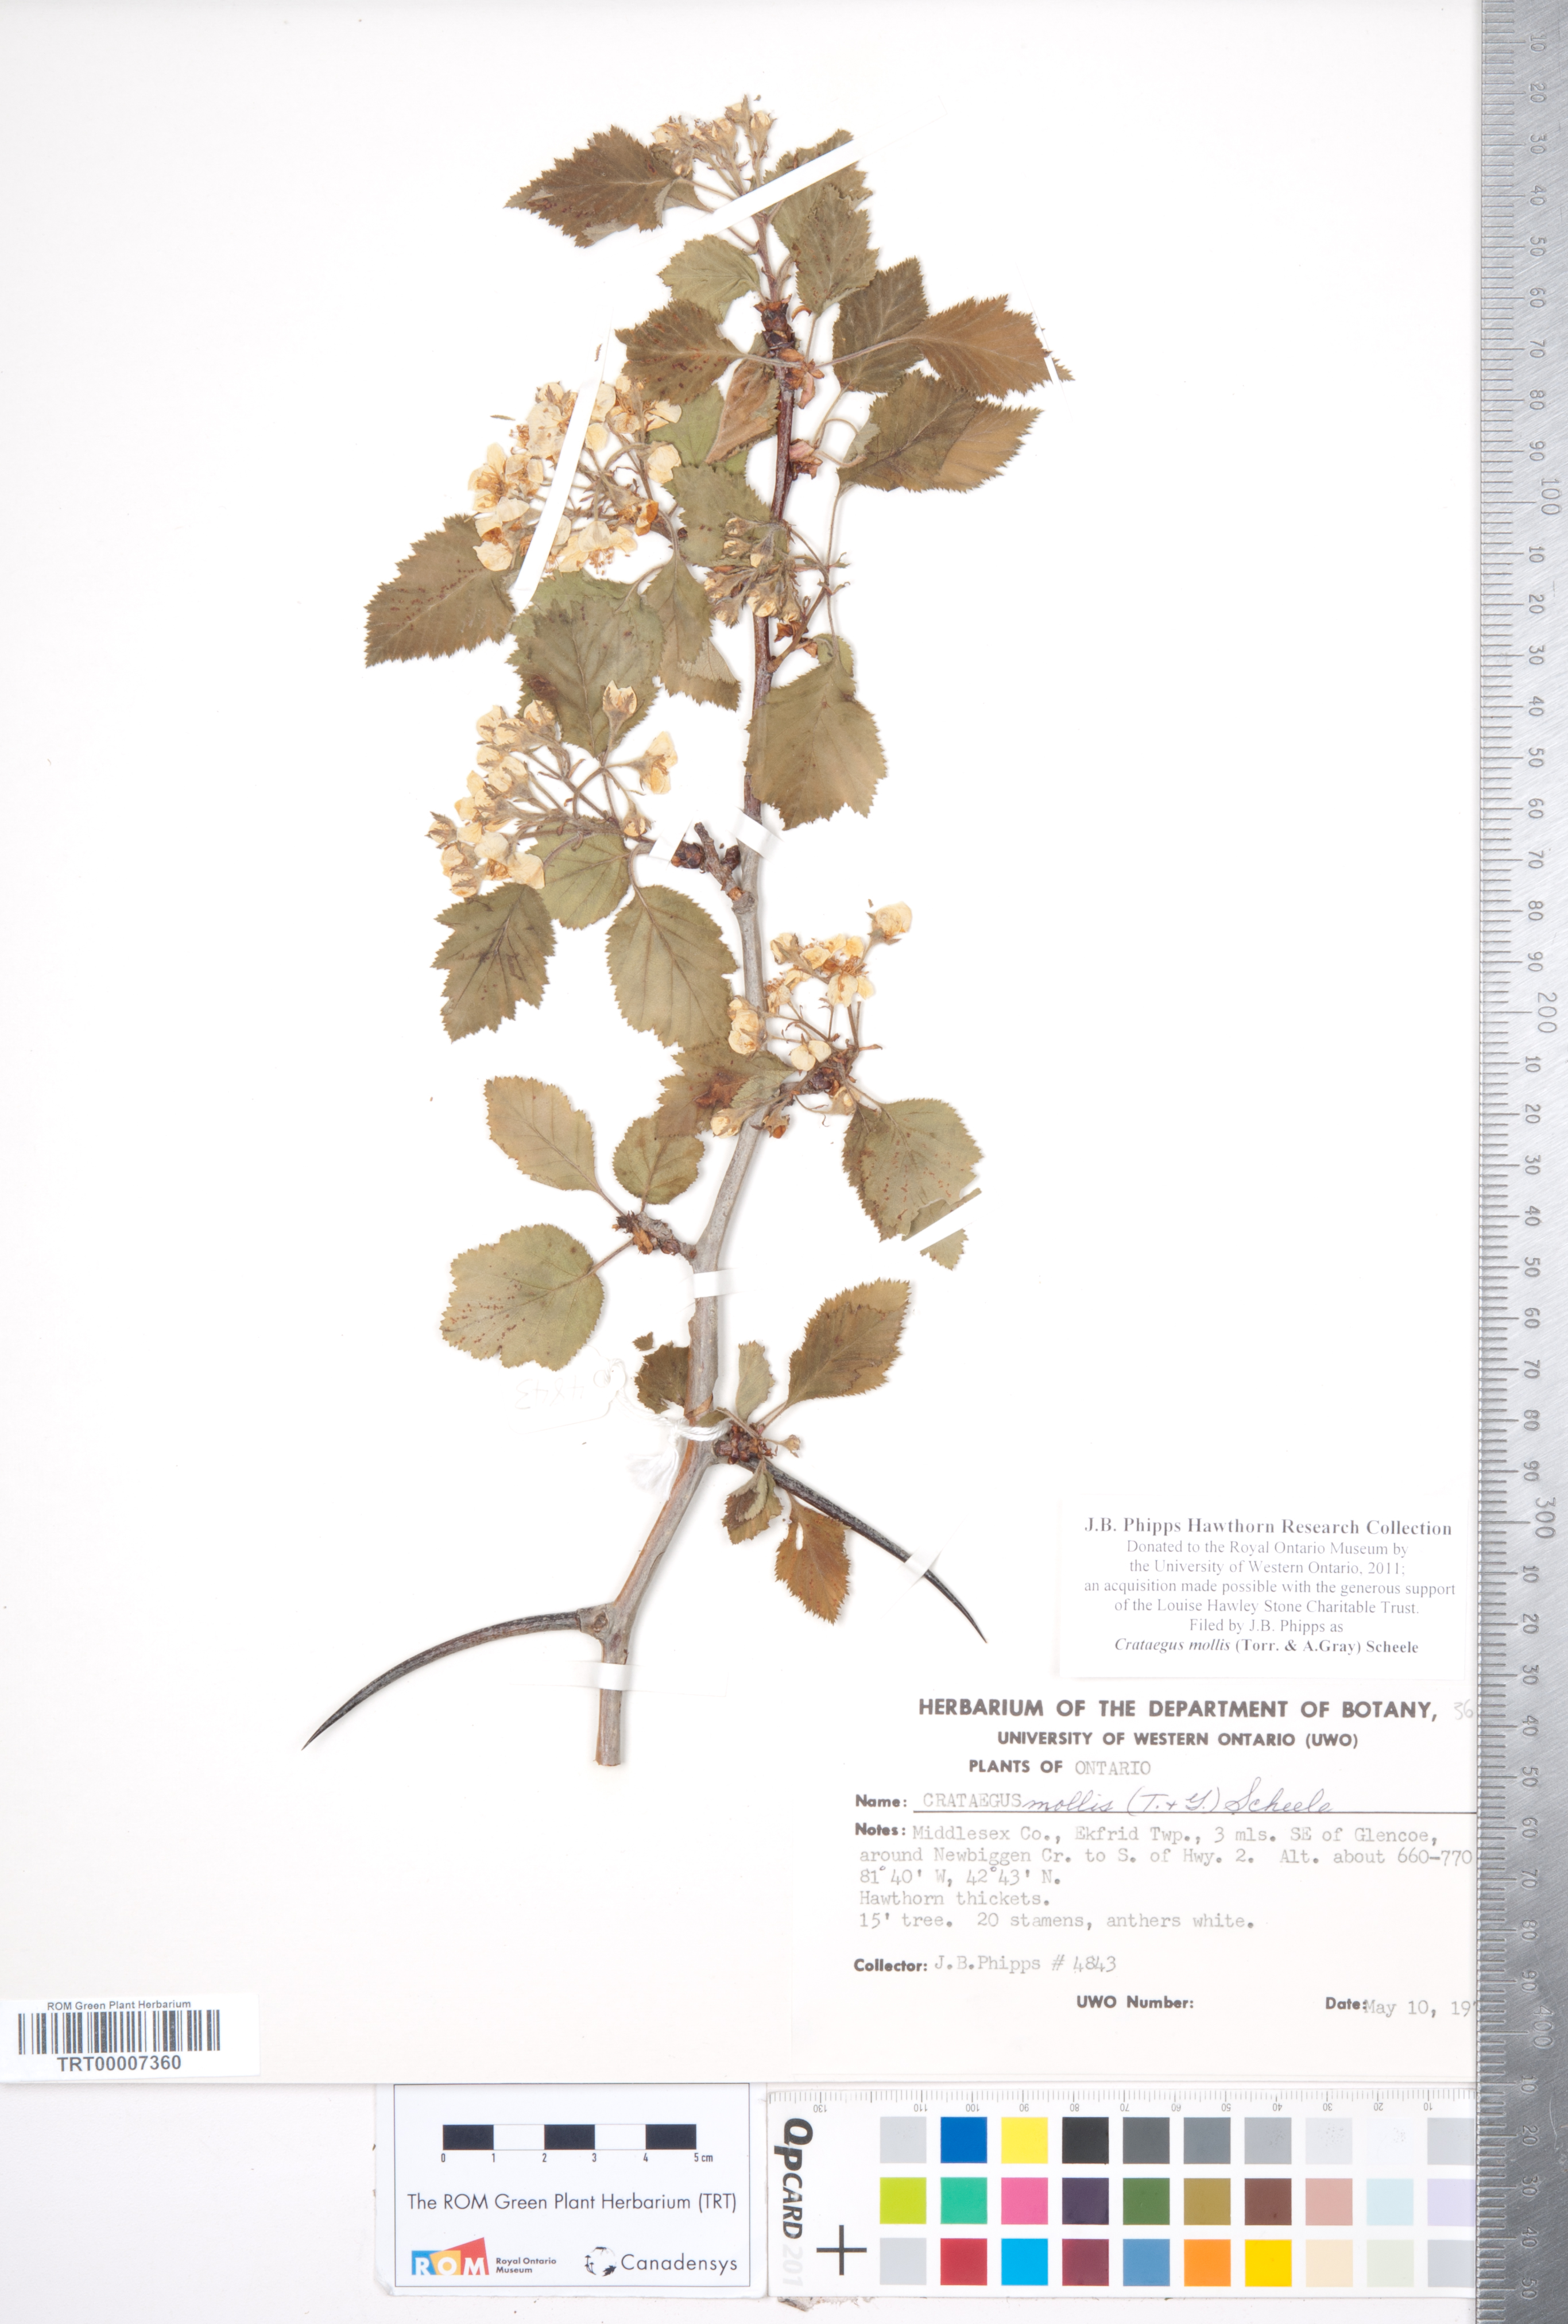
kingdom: Plantae
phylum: Tracheophyta
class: Magnoliopsida
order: Rosales
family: Rosaceae
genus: Crataegus
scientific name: Crataegus mollis
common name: Downy hawthorn
